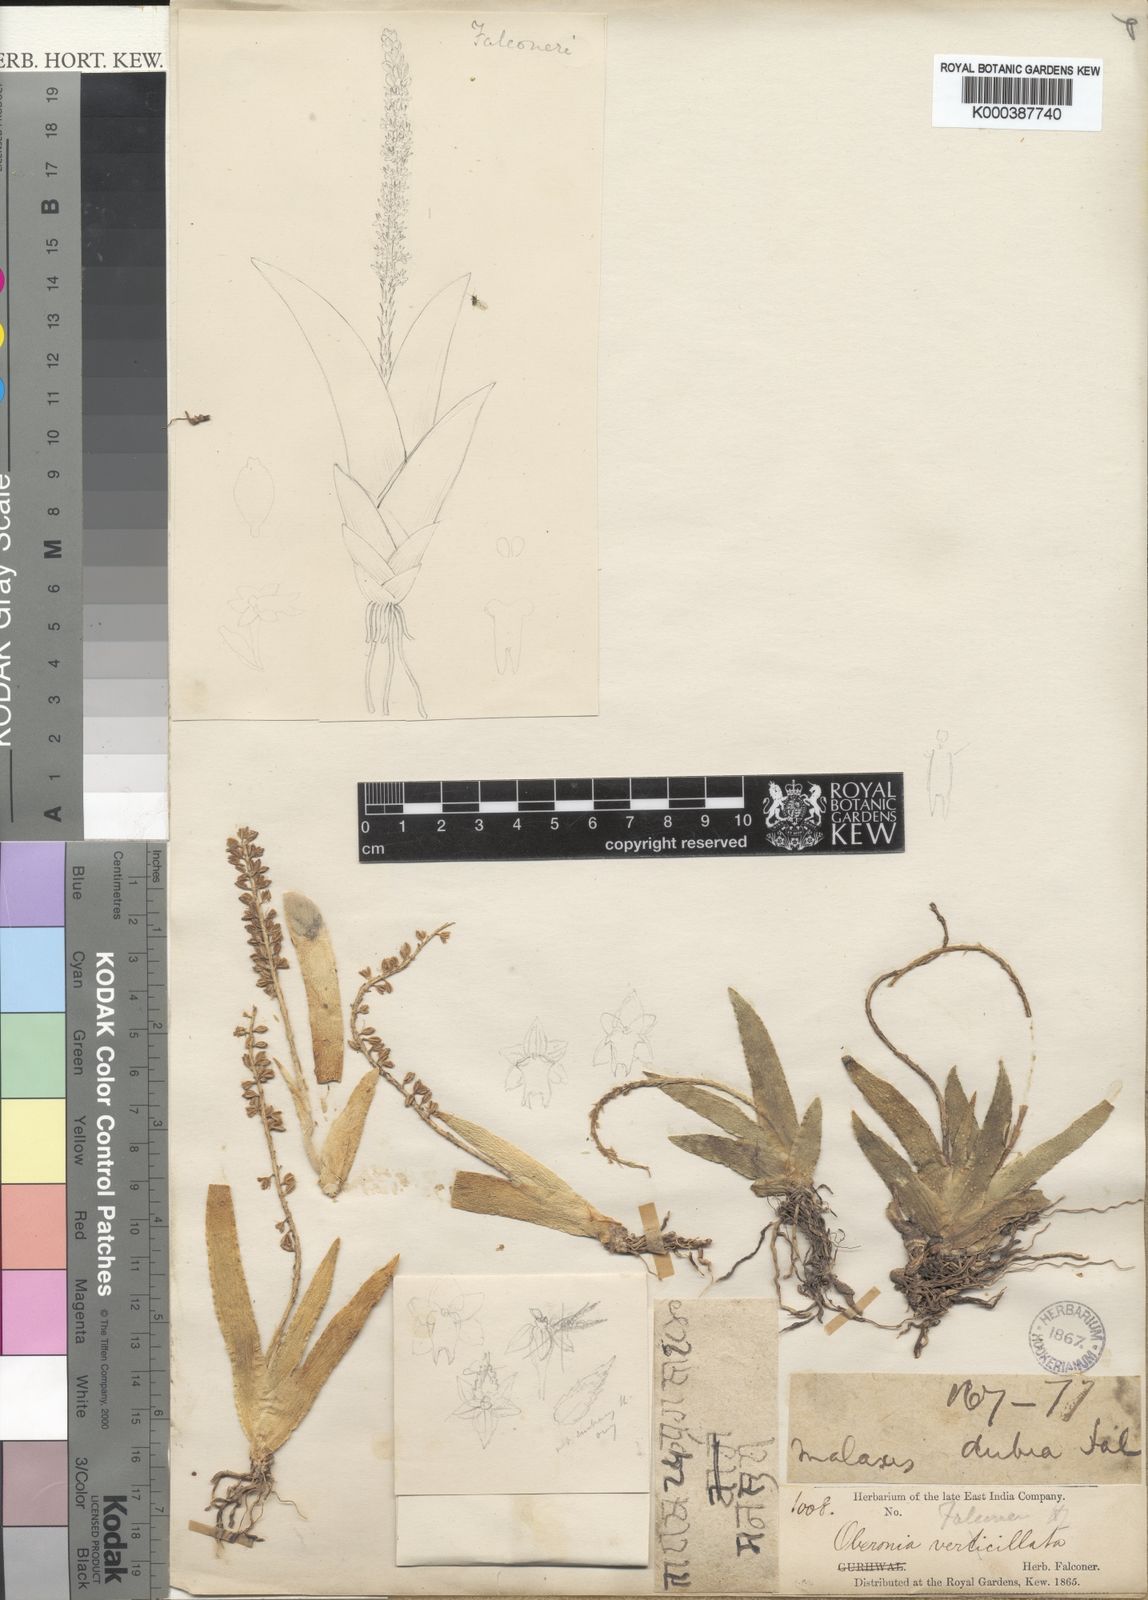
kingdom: Plantae
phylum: Tracheophyta
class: Liliopsida
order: Asparagales
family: Orchidaceae
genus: Oberonia
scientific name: Oberonia falconeri
